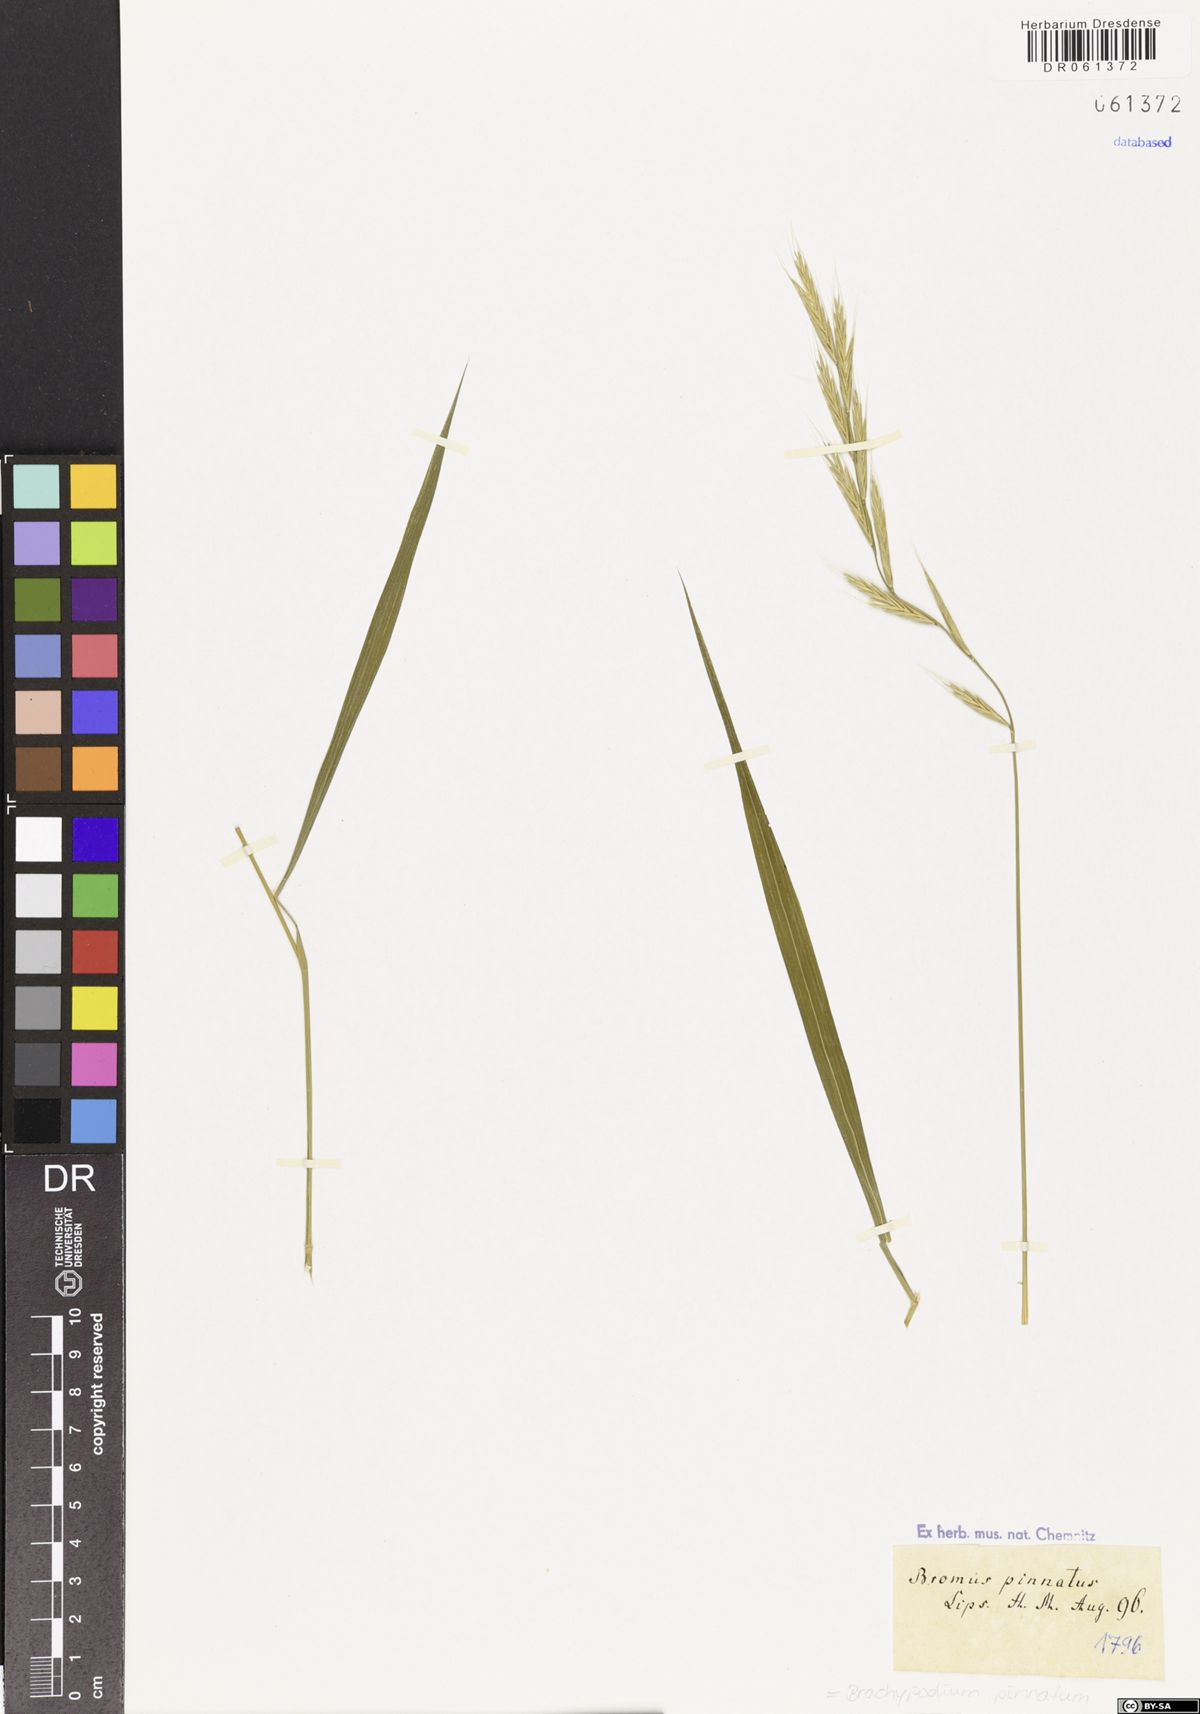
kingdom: Plantae
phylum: Tracheophyta
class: Liliopsida
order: Poales
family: Poaceae
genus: Brachypodium
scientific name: Brachypodium pinnatum
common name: Tor grass
